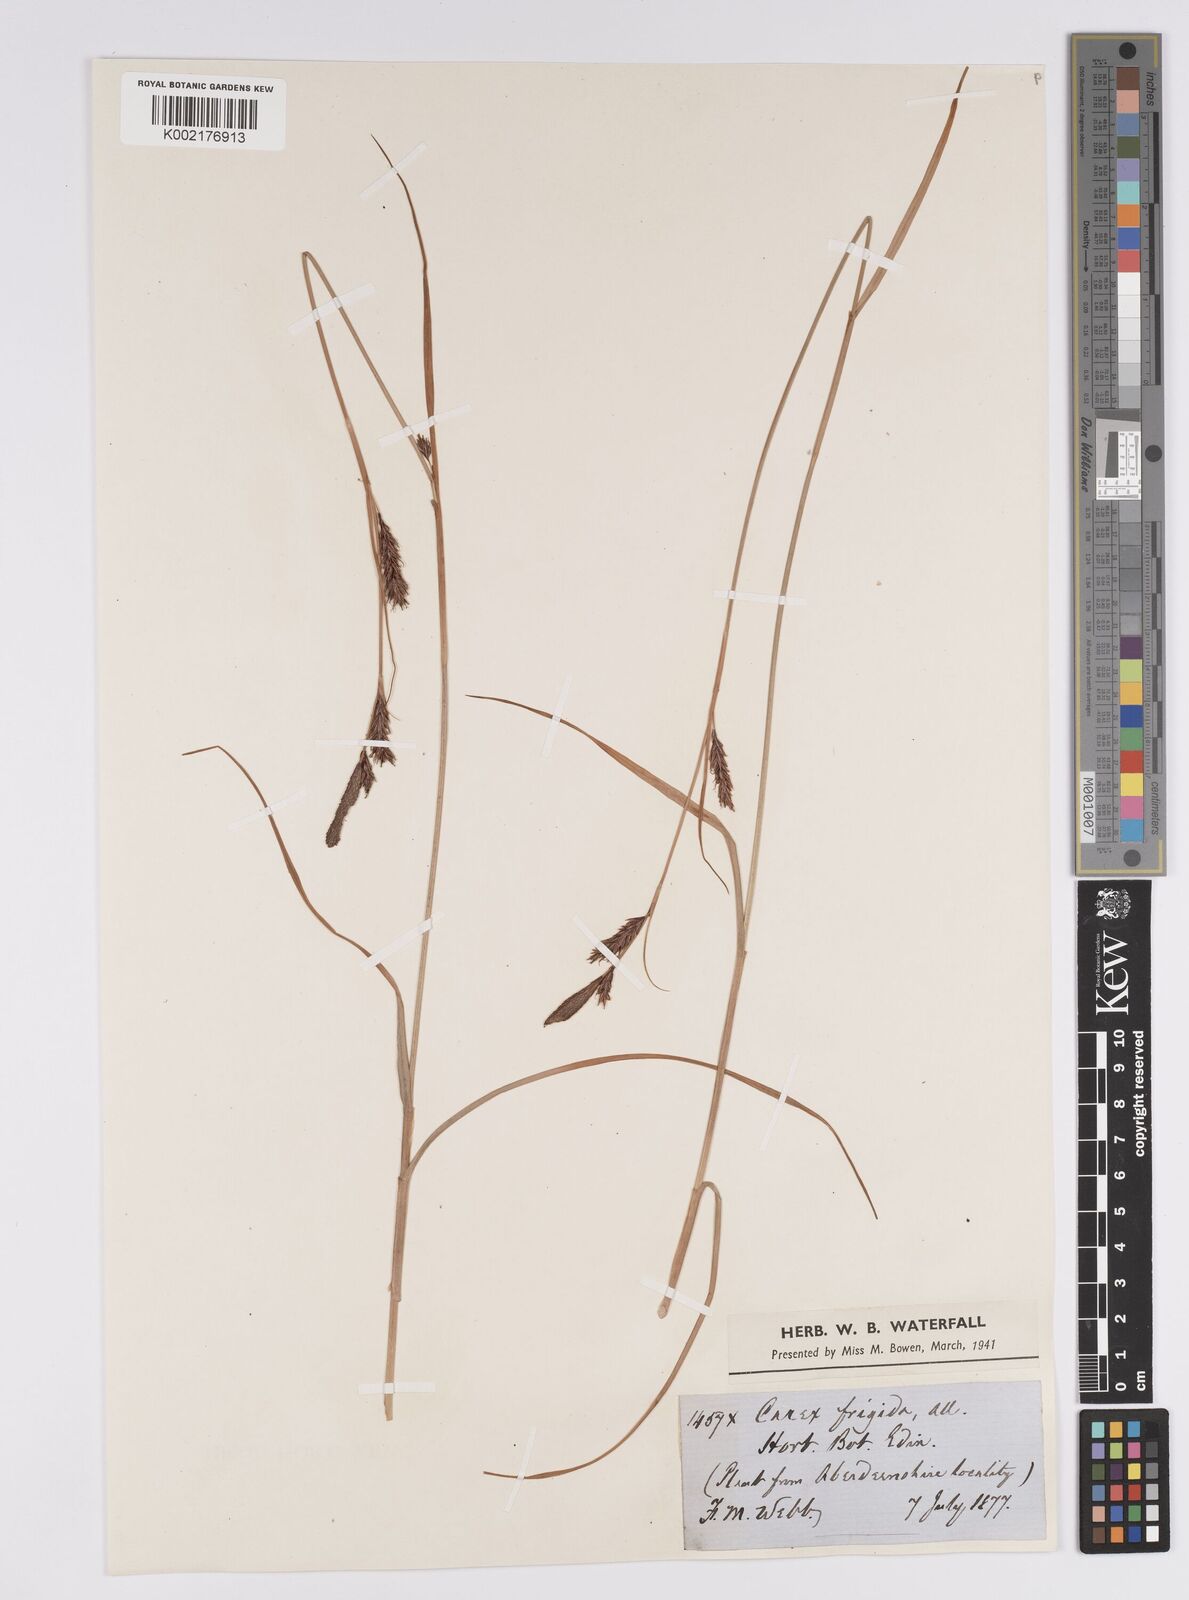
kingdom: Plantae
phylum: Tracheophyta
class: Liliopsida
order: Poales
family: Cyperaceae
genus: Carex
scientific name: Carex frigida
